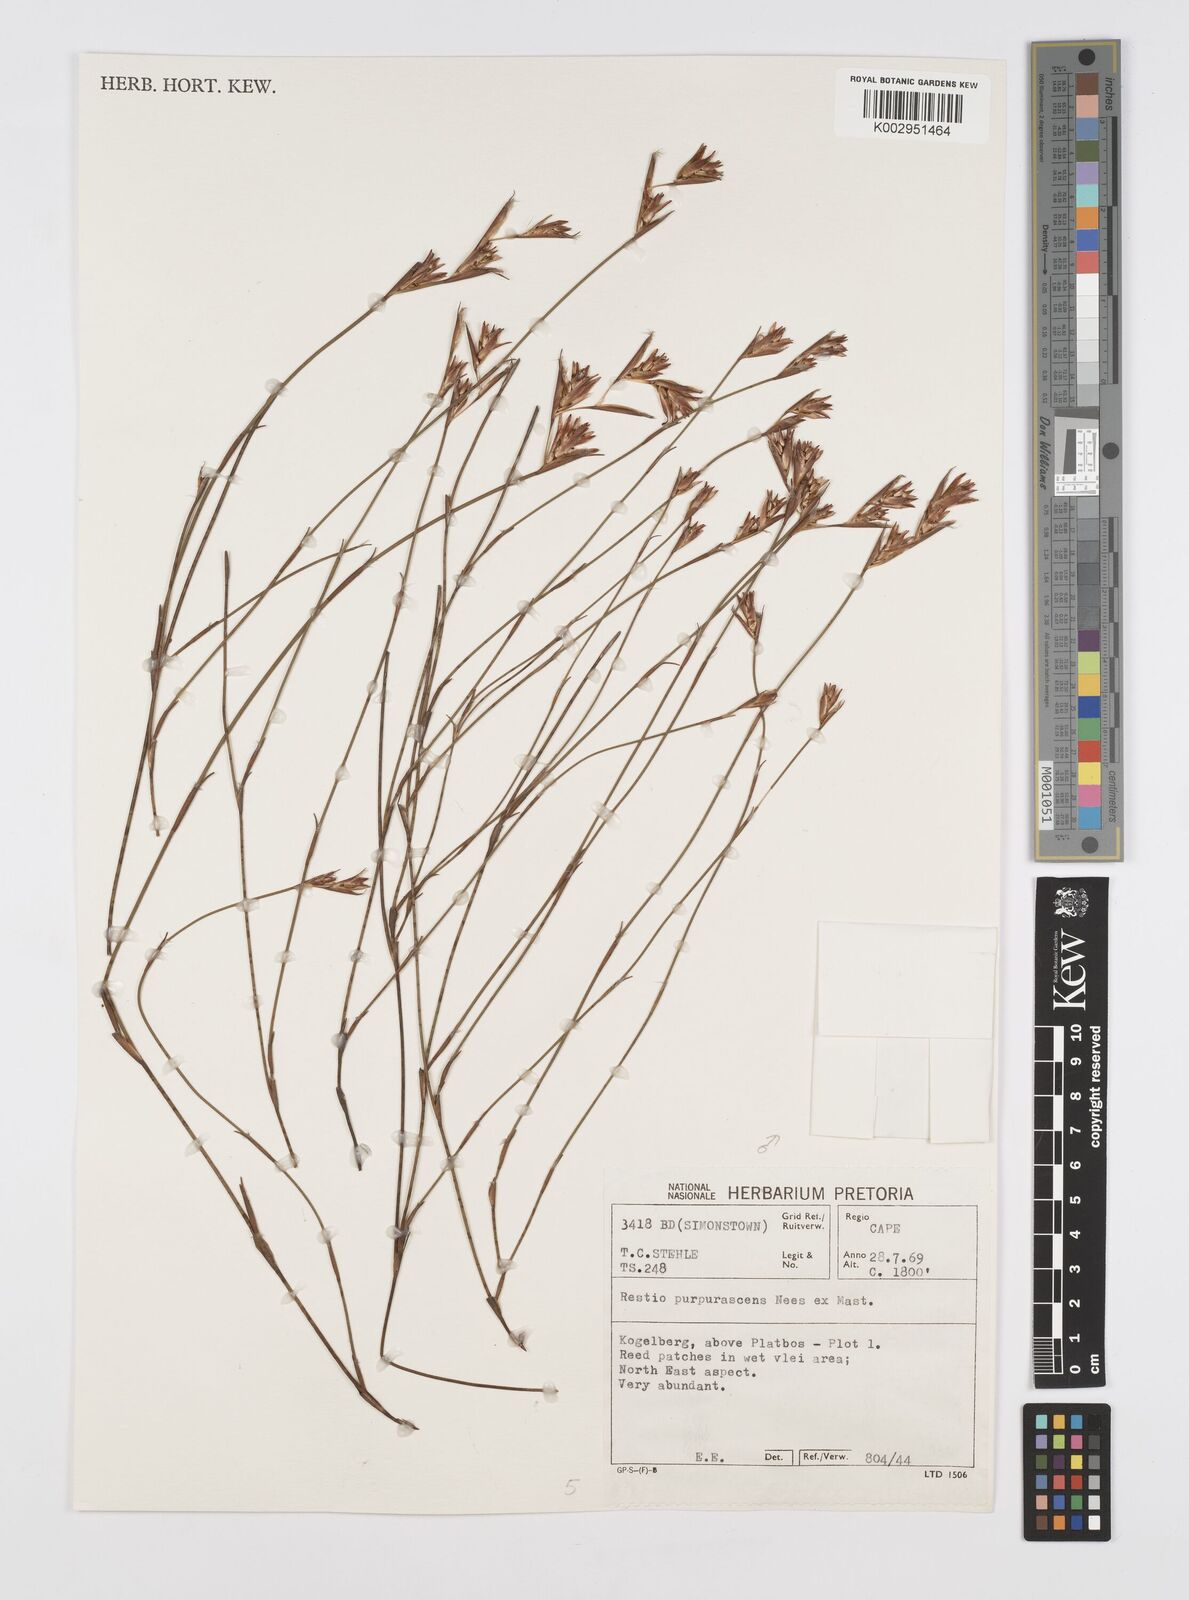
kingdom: Plantae
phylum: Tracheophyta
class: Liliopsida
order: Poales
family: Restionaceae
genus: Restio
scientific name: Restio purpurascens
